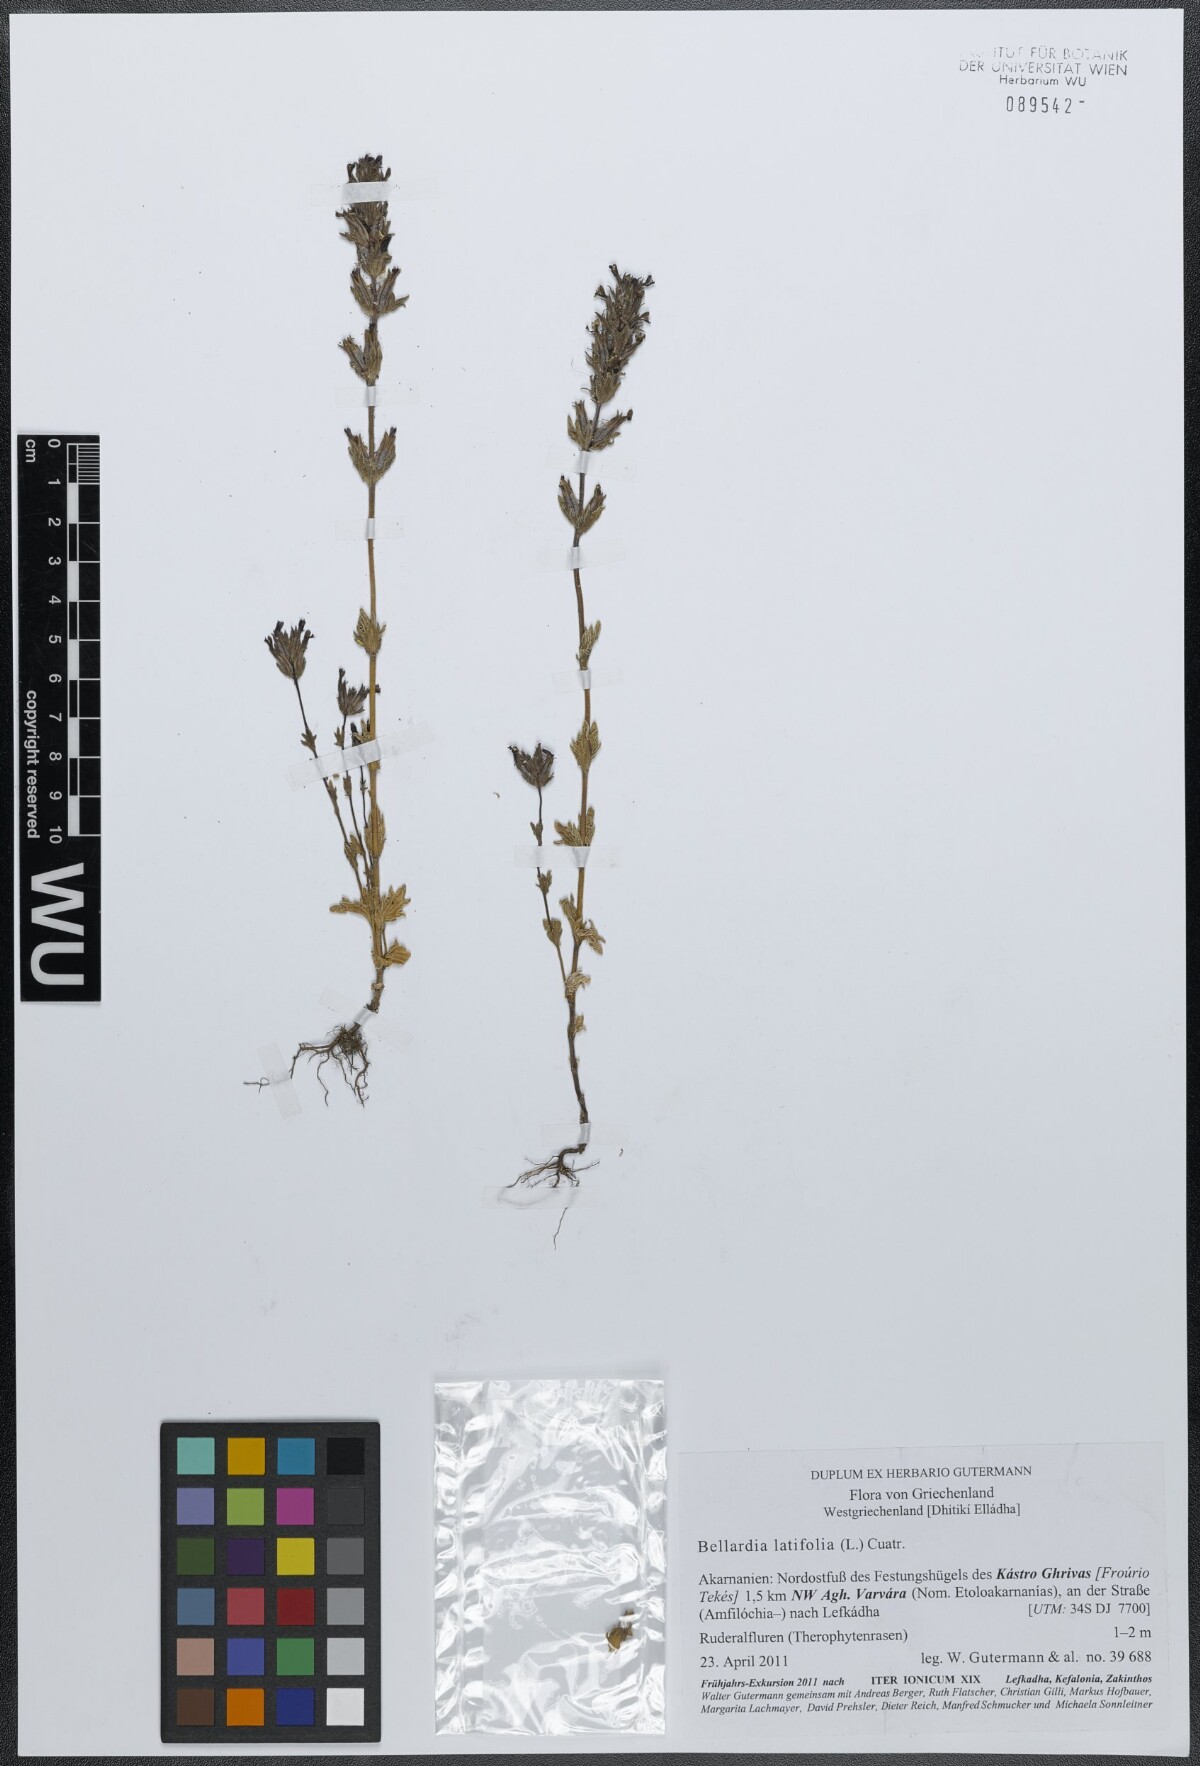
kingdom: Plantae
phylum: Tracheophyta
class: Magnoliopsida
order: Lamiales
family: Orobanchaceae
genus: Parentucellia
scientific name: Parentucellia latifolia
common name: Broadleaf glandweed
